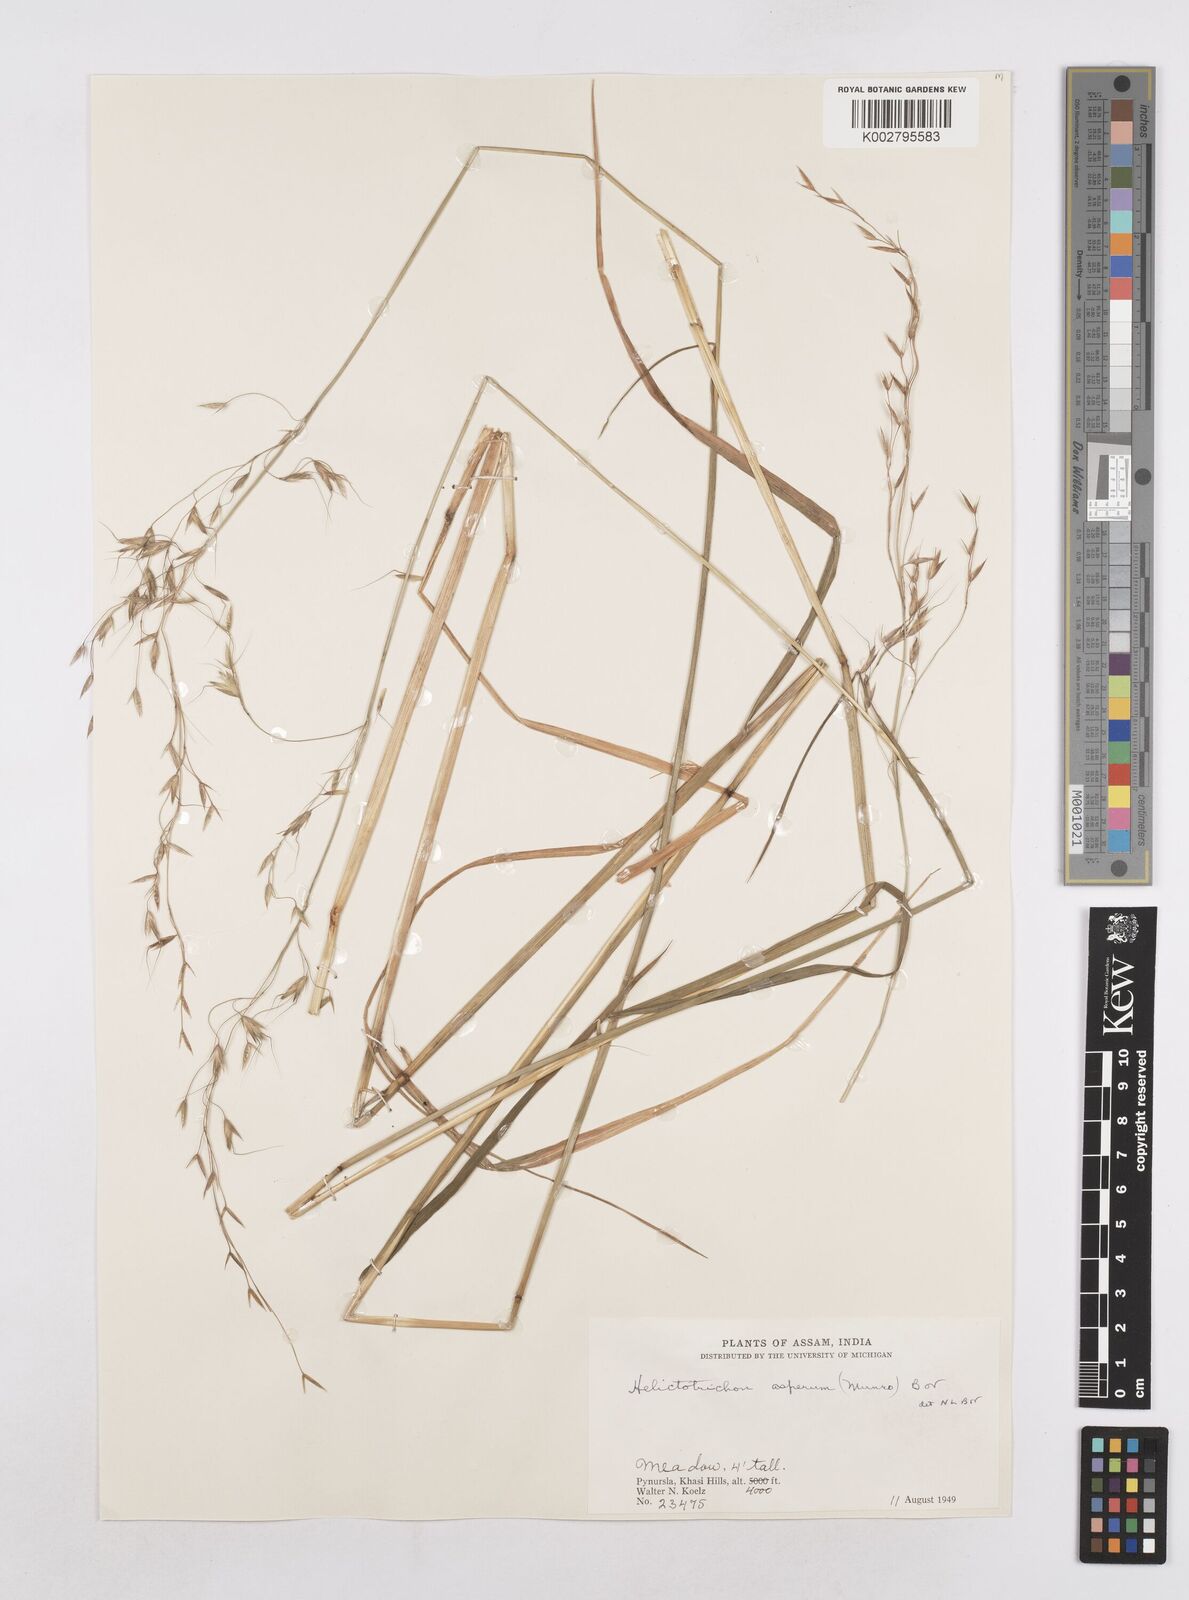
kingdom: Plantae
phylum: Tracheophyta
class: Liliopsida
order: Poales
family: Poaceae
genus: Trisetopsis
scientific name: Trisetopsis junghuhnii
